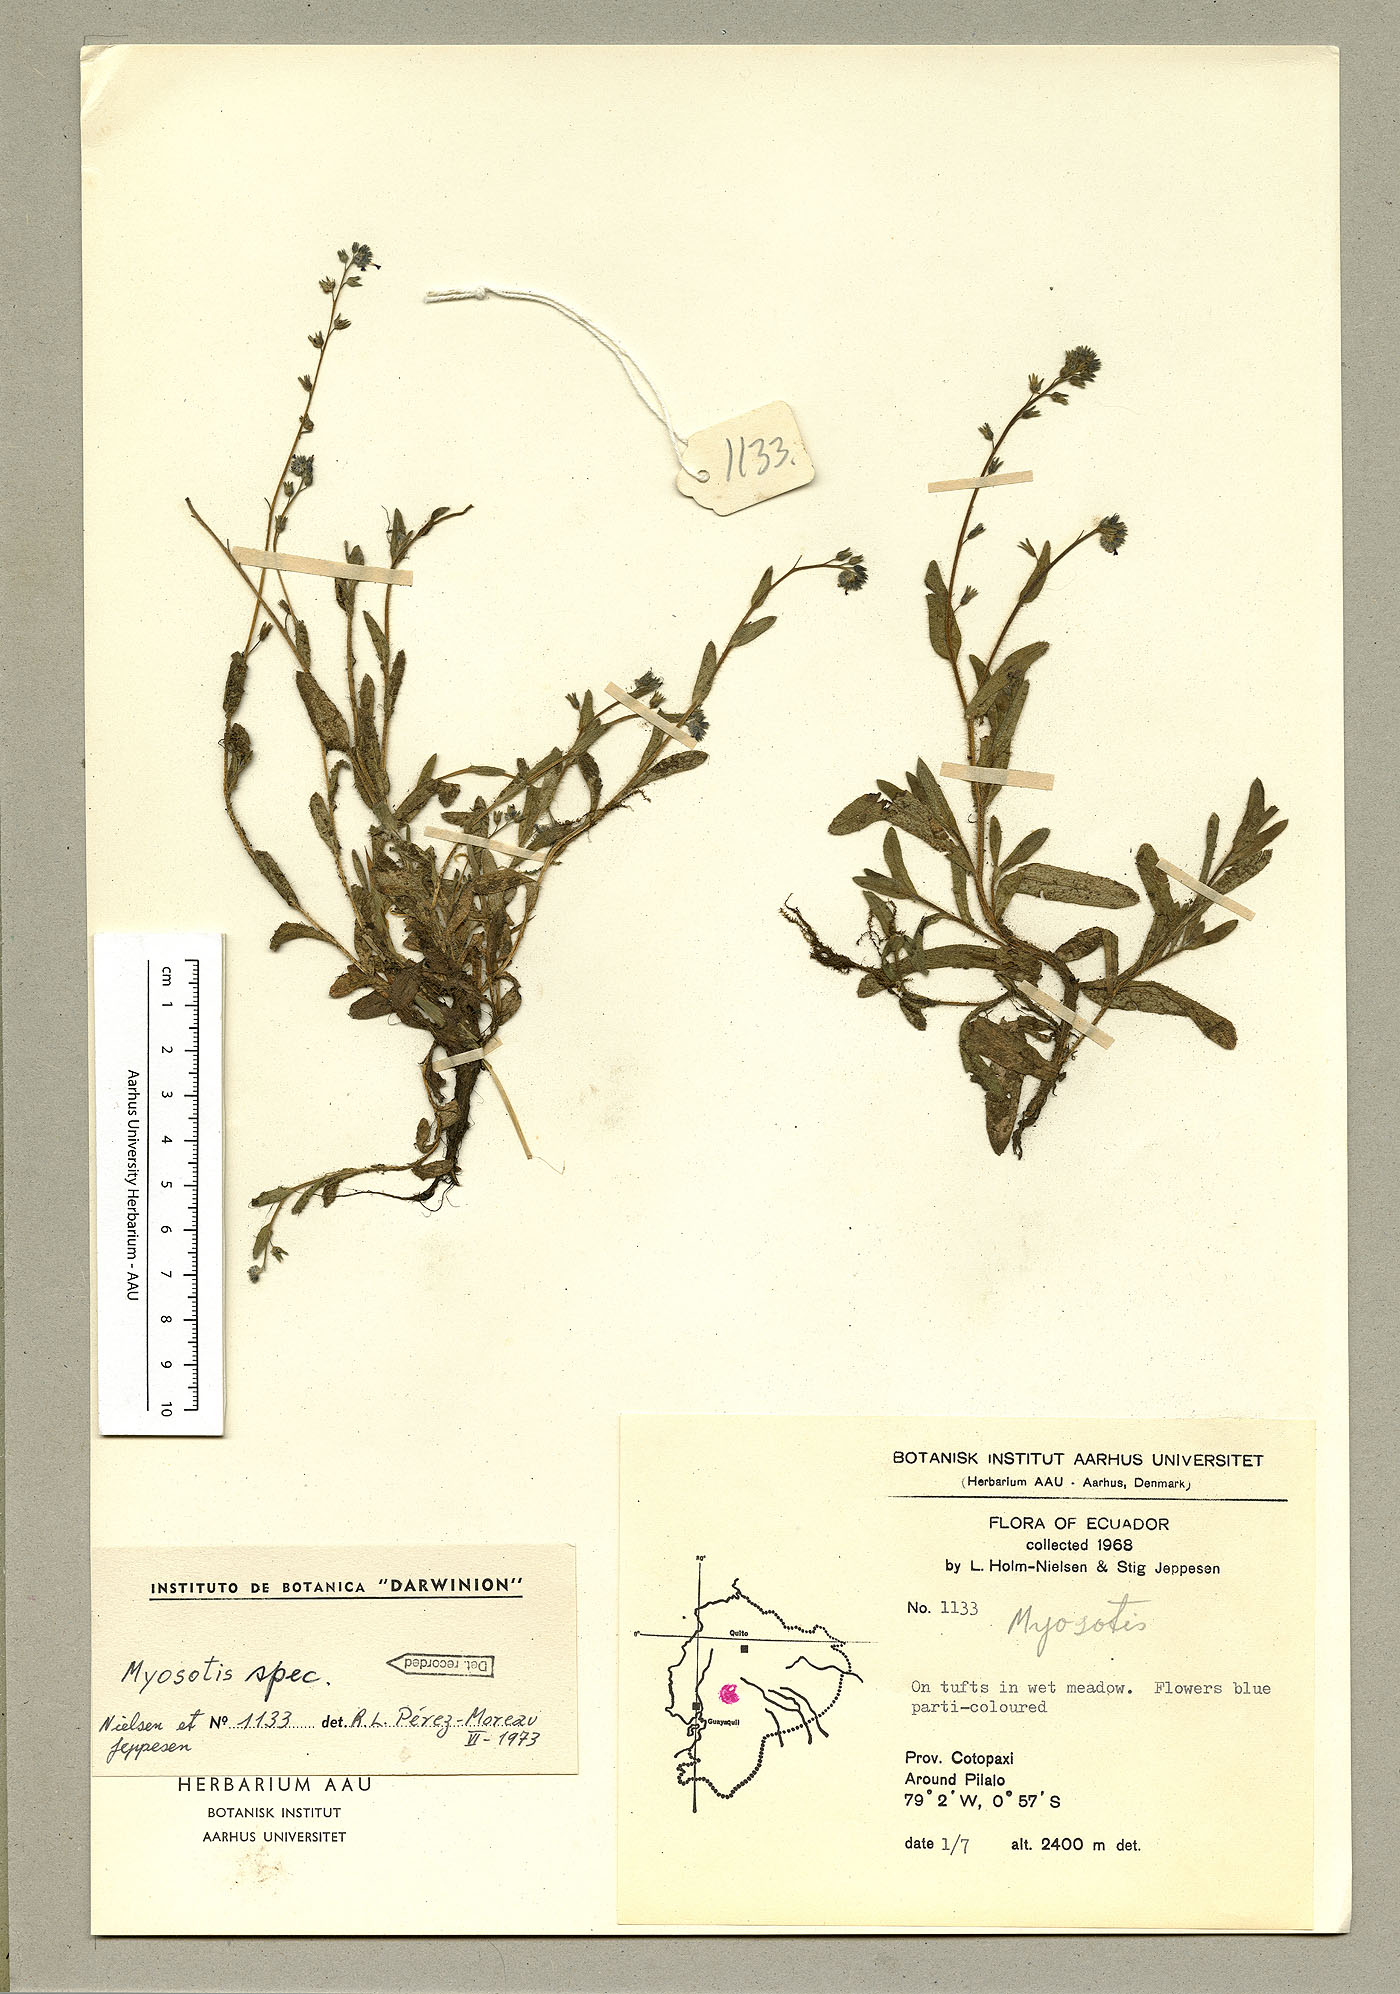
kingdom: Plantae
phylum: Tracheophyta
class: Magnoliopsida
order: Boraginales
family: Boraginaceae
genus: Myosotis
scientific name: Myosotis discolor
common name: Changing forget-me-not
